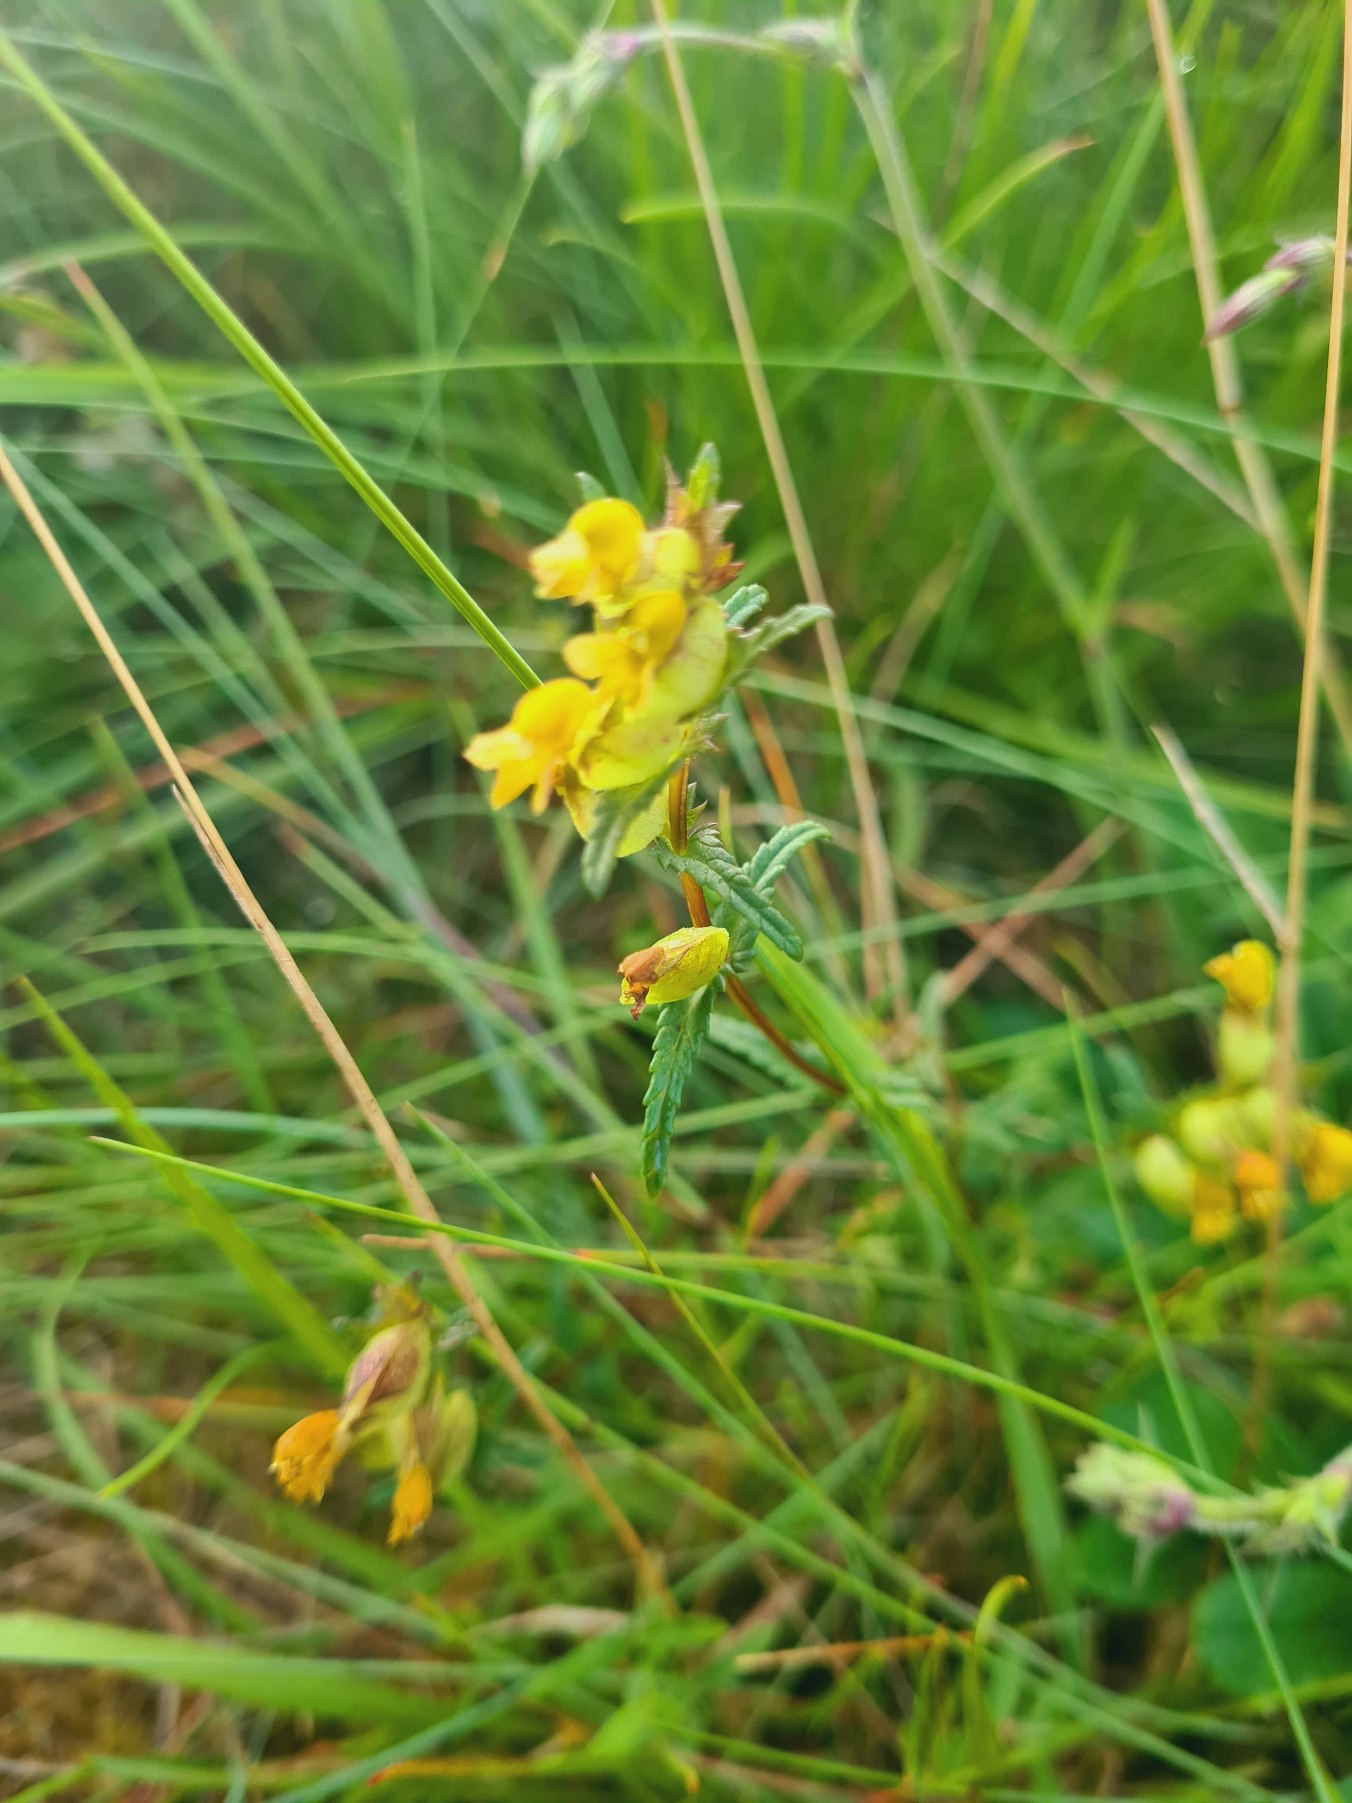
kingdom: Plantae
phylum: Tracheophyta
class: Magnoliopsida
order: Lamiales
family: Orobanchaceae
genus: Rhinanthus
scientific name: Rhinanthus minor
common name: Liden skjaller
